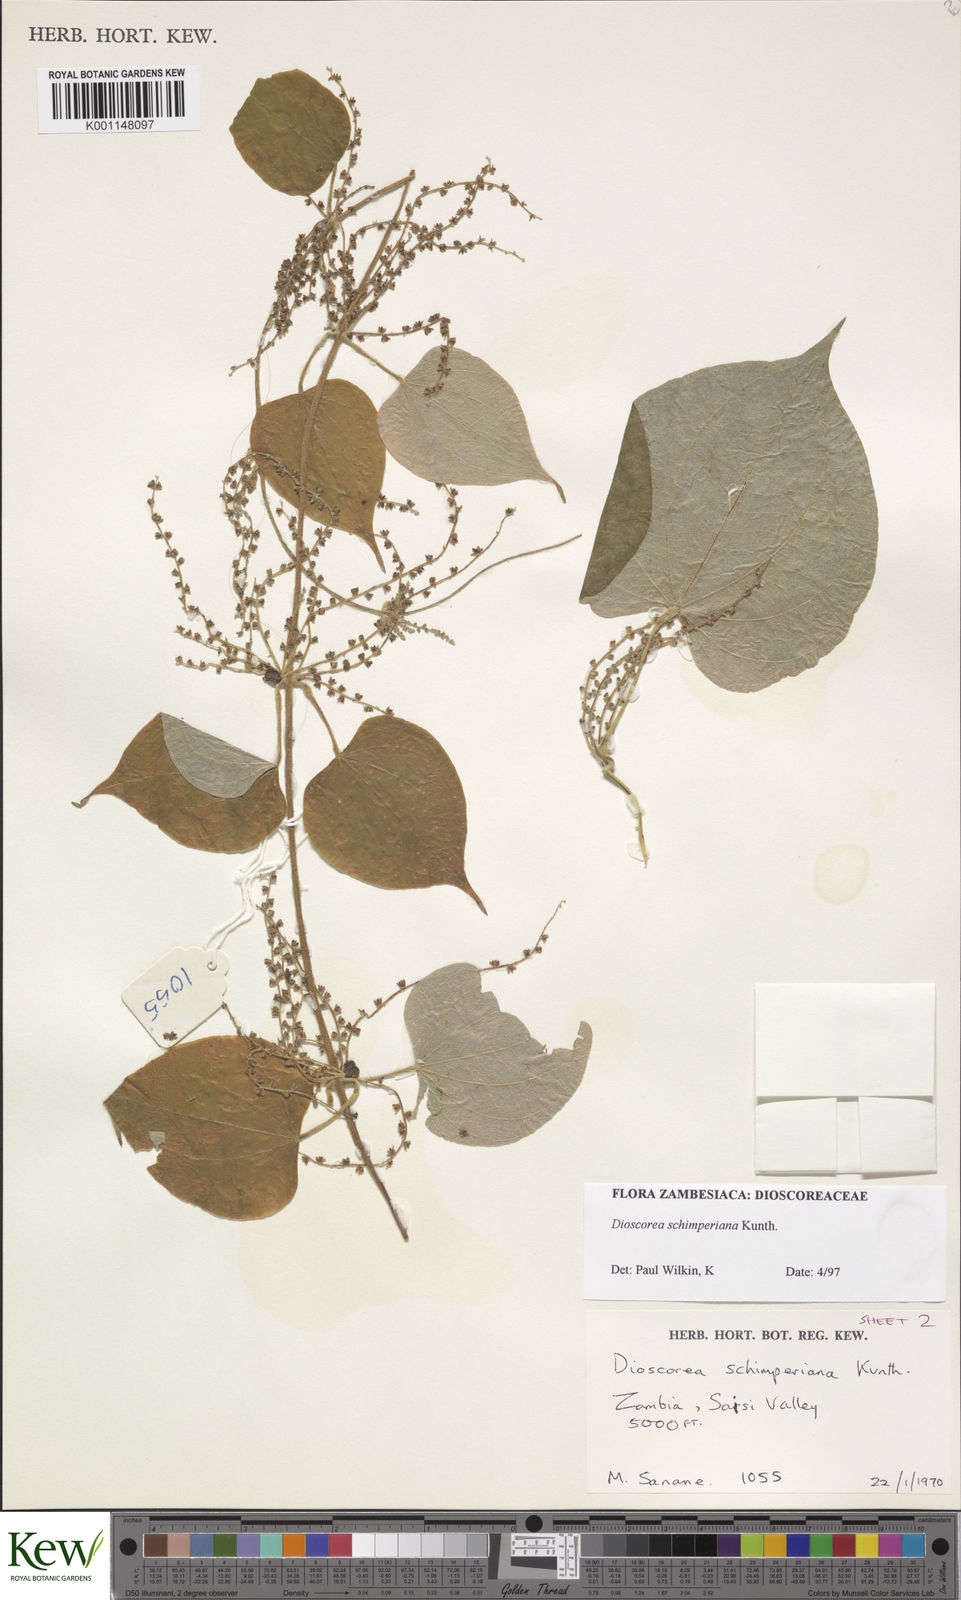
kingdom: Plantae
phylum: Tracheophyta
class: Liliopsida
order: Dioscoreales
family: Dioscoreaceae
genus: Dioscorea
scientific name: Dioscorea schimperiana
